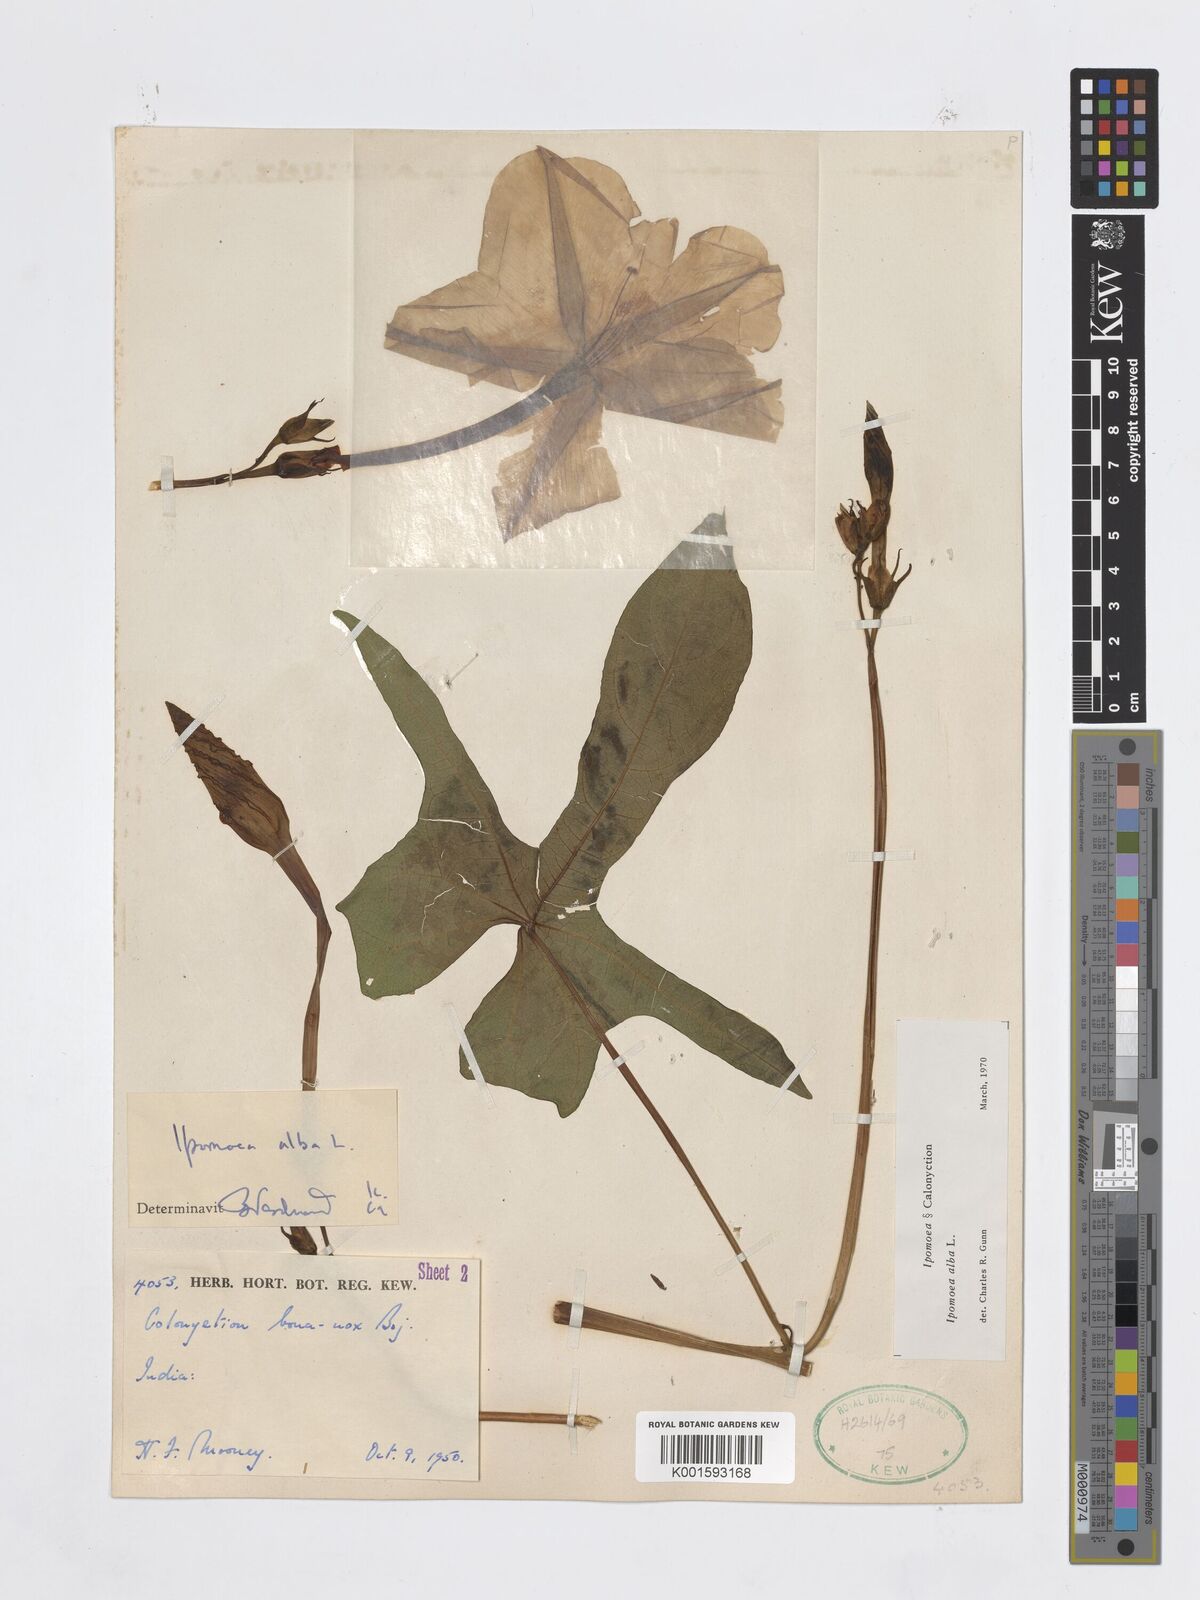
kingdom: Plantae
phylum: Tracheophyta
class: Magnoliopsida
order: Solanales
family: Convolvulaceae
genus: Ipomoea
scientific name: Ipomoea alba
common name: Moonflower
